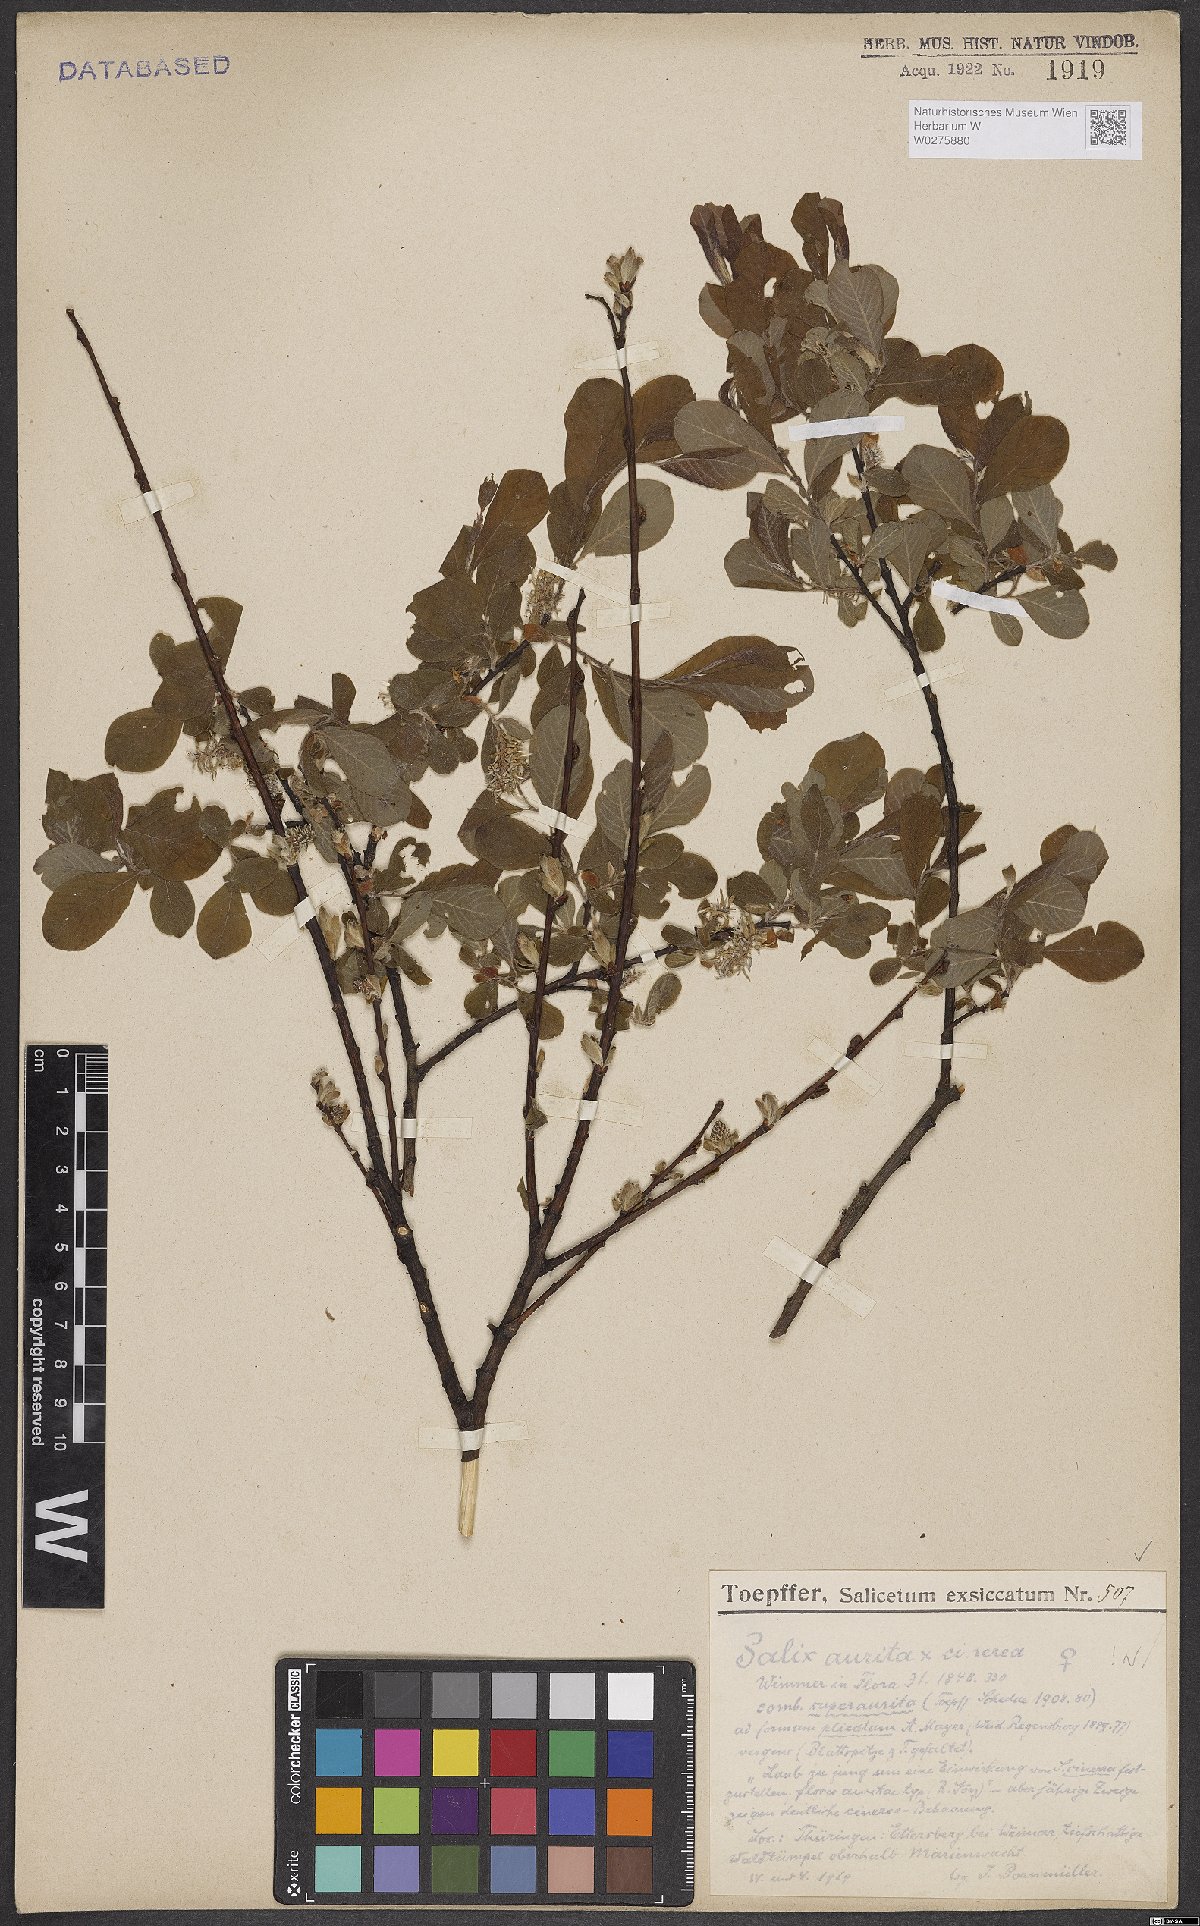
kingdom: Plantae
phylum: Tracheophyta
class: Magnoliopsida
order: Malpighiales
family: Salicaceae
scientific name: Salicaceae
